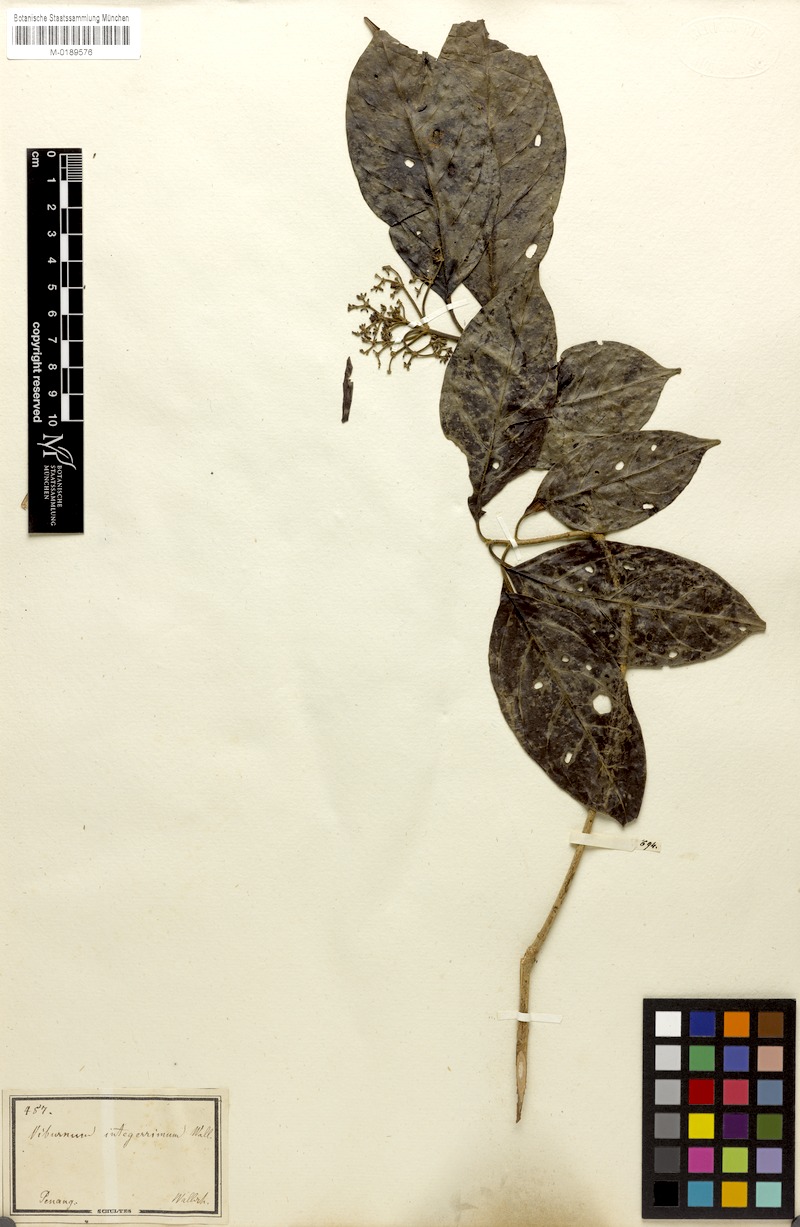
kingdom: Plantae
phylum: Tracheophyta
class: Magnoliopsida
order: Dipsacales
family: Viburnaceae
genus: Viburnum
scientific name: Viburnum sambucinum
